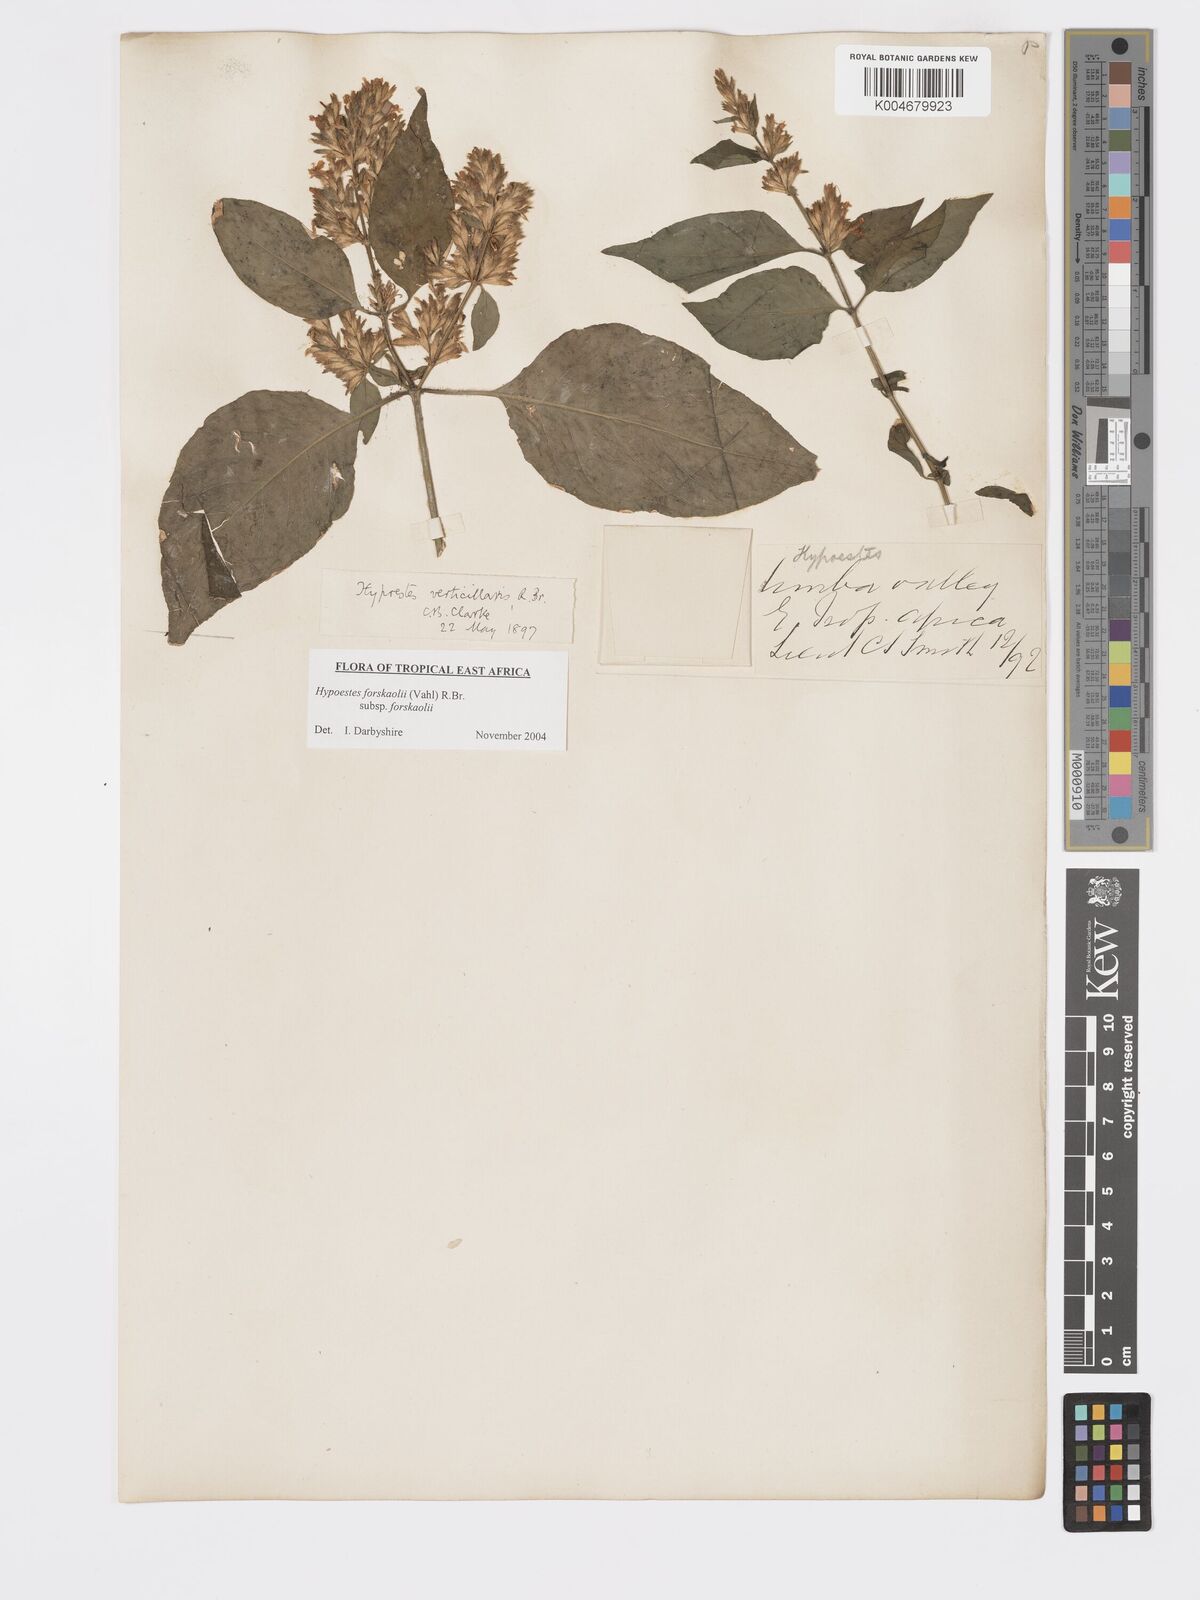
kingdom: Plantae
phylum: Tracheophyta
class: Magnoliopsida
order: Lamiales
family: Acanthaceae
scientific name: Acanthaceae
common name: Acanthaceae
